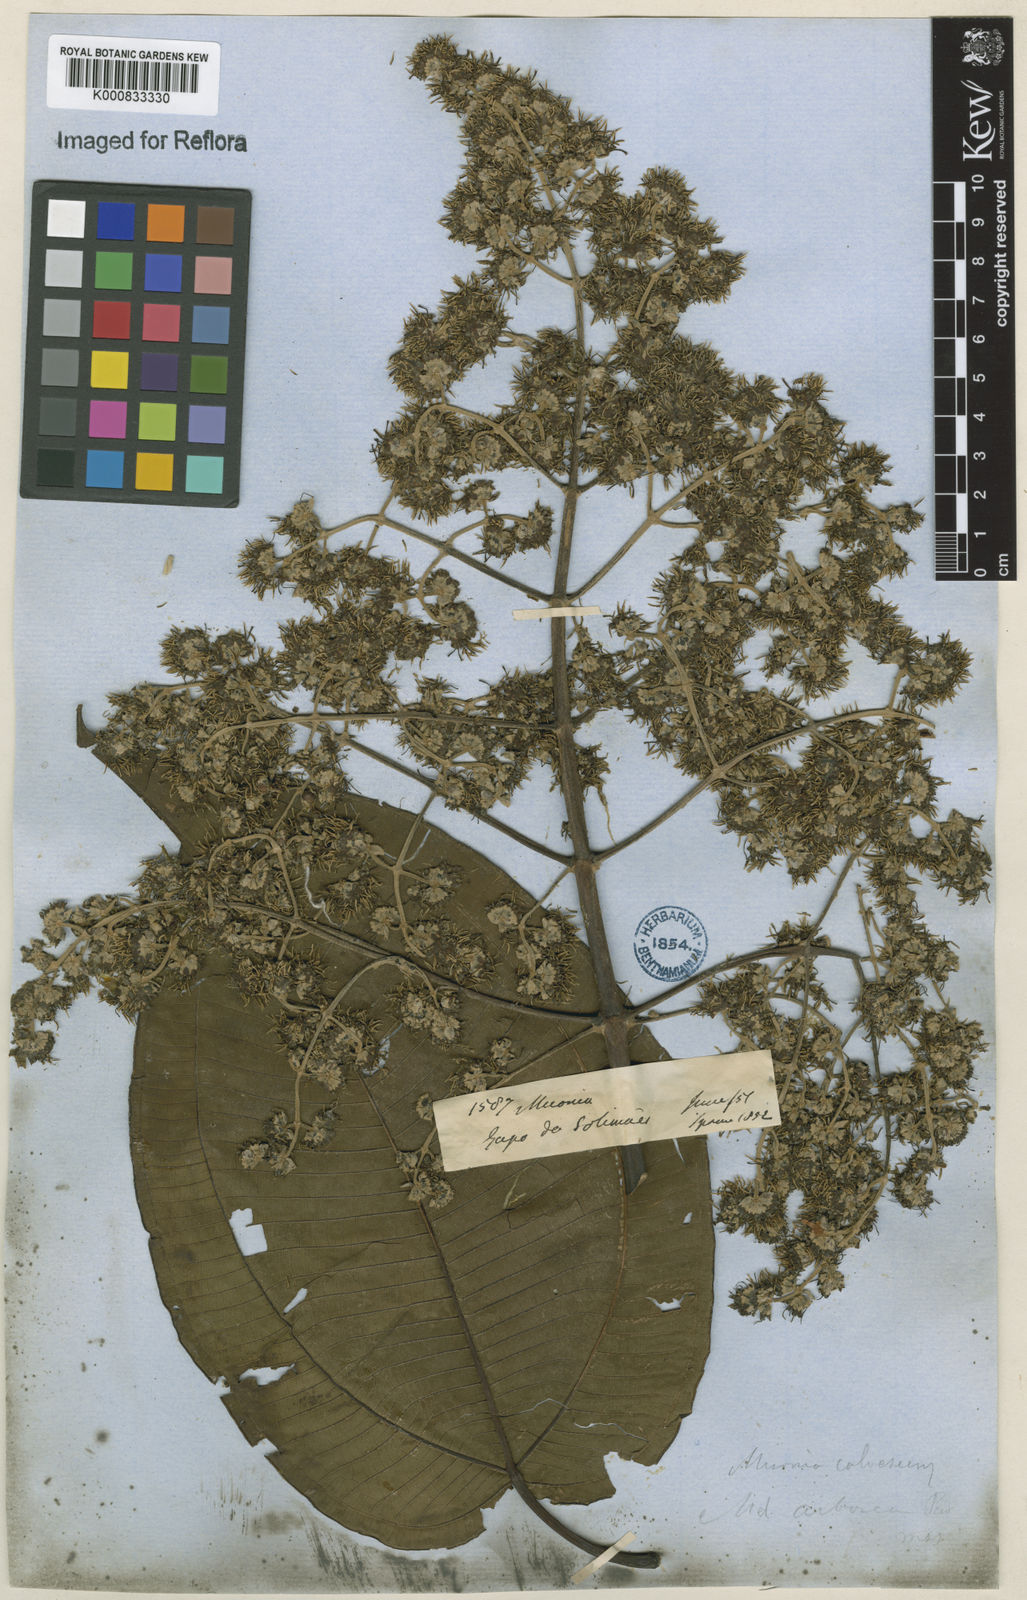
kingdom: Plantae
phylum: Tracheophyta
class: Magnoliopsida
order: Myrtales
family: Melastomataceae
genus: Miconia
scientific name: Miconia calvescens
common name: Purple plague
